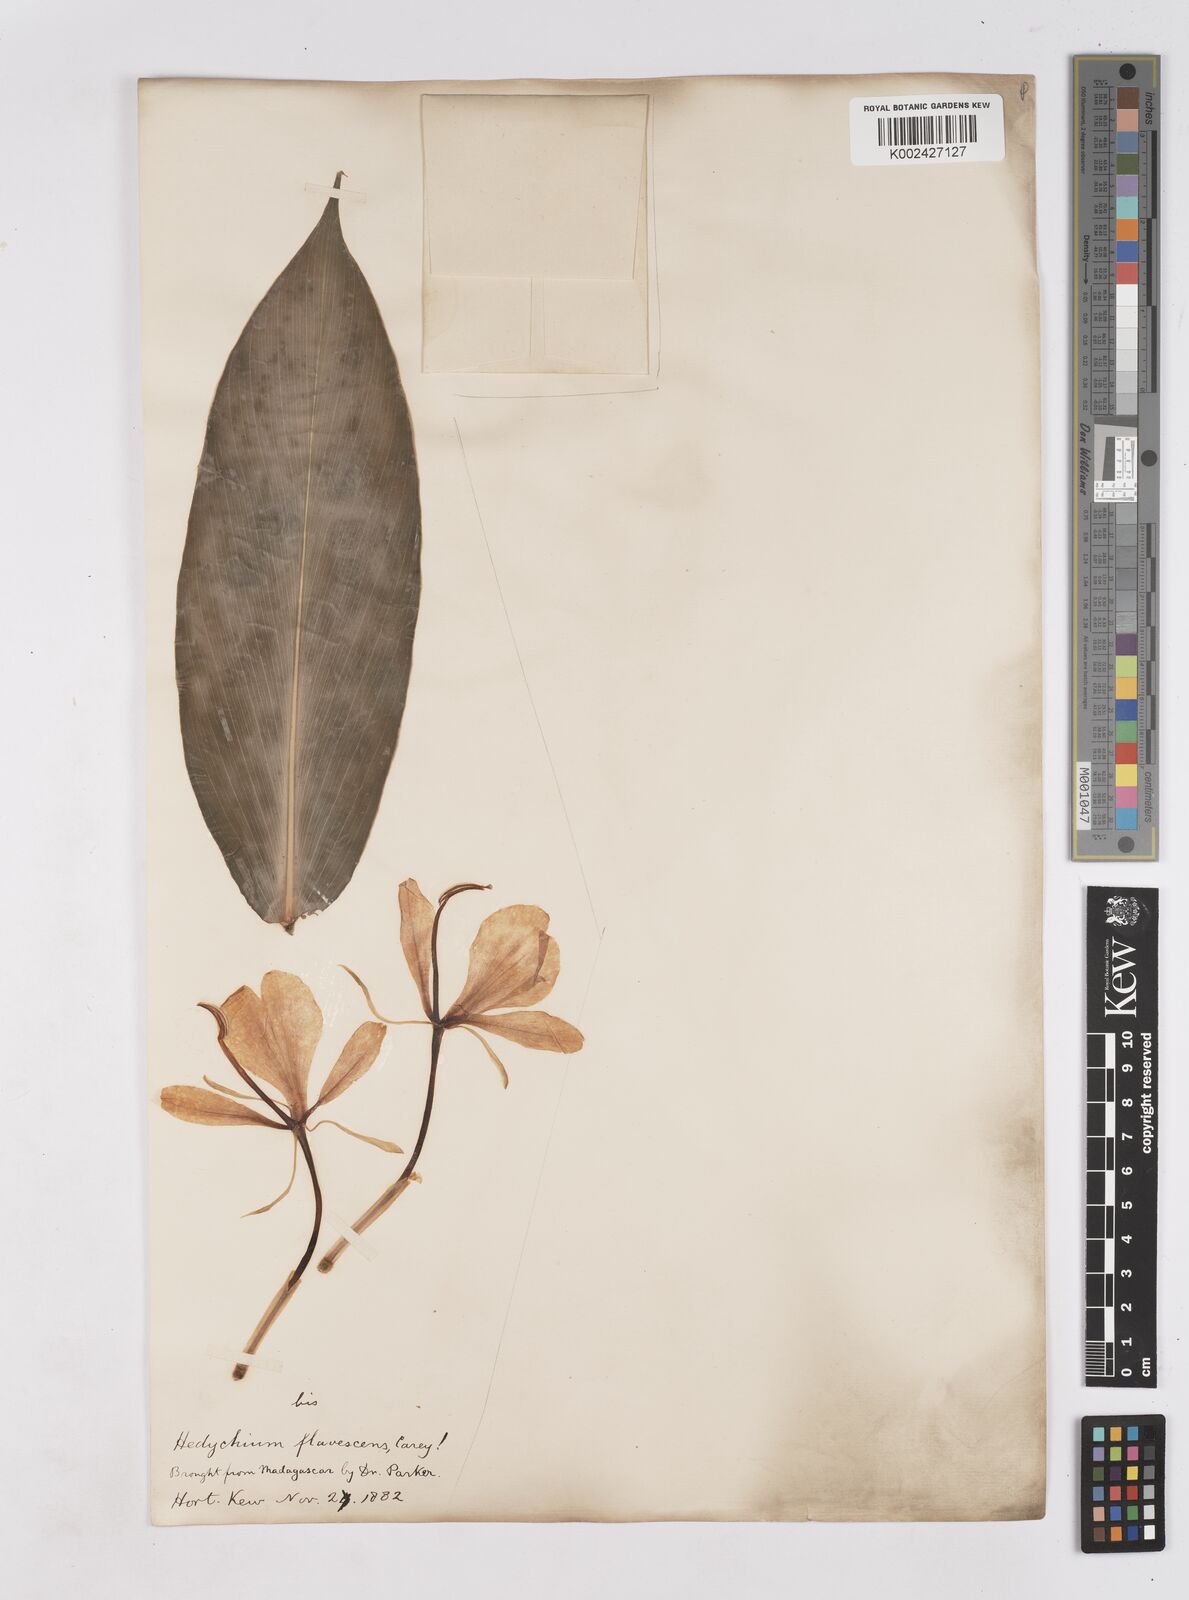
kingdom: Plantae
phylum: Tracheophyta
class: Liliopsida
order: Zingiberales
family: Zingiberaceae
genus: Hedychium
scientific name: Hedychium coronarium
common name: White garland-lily
